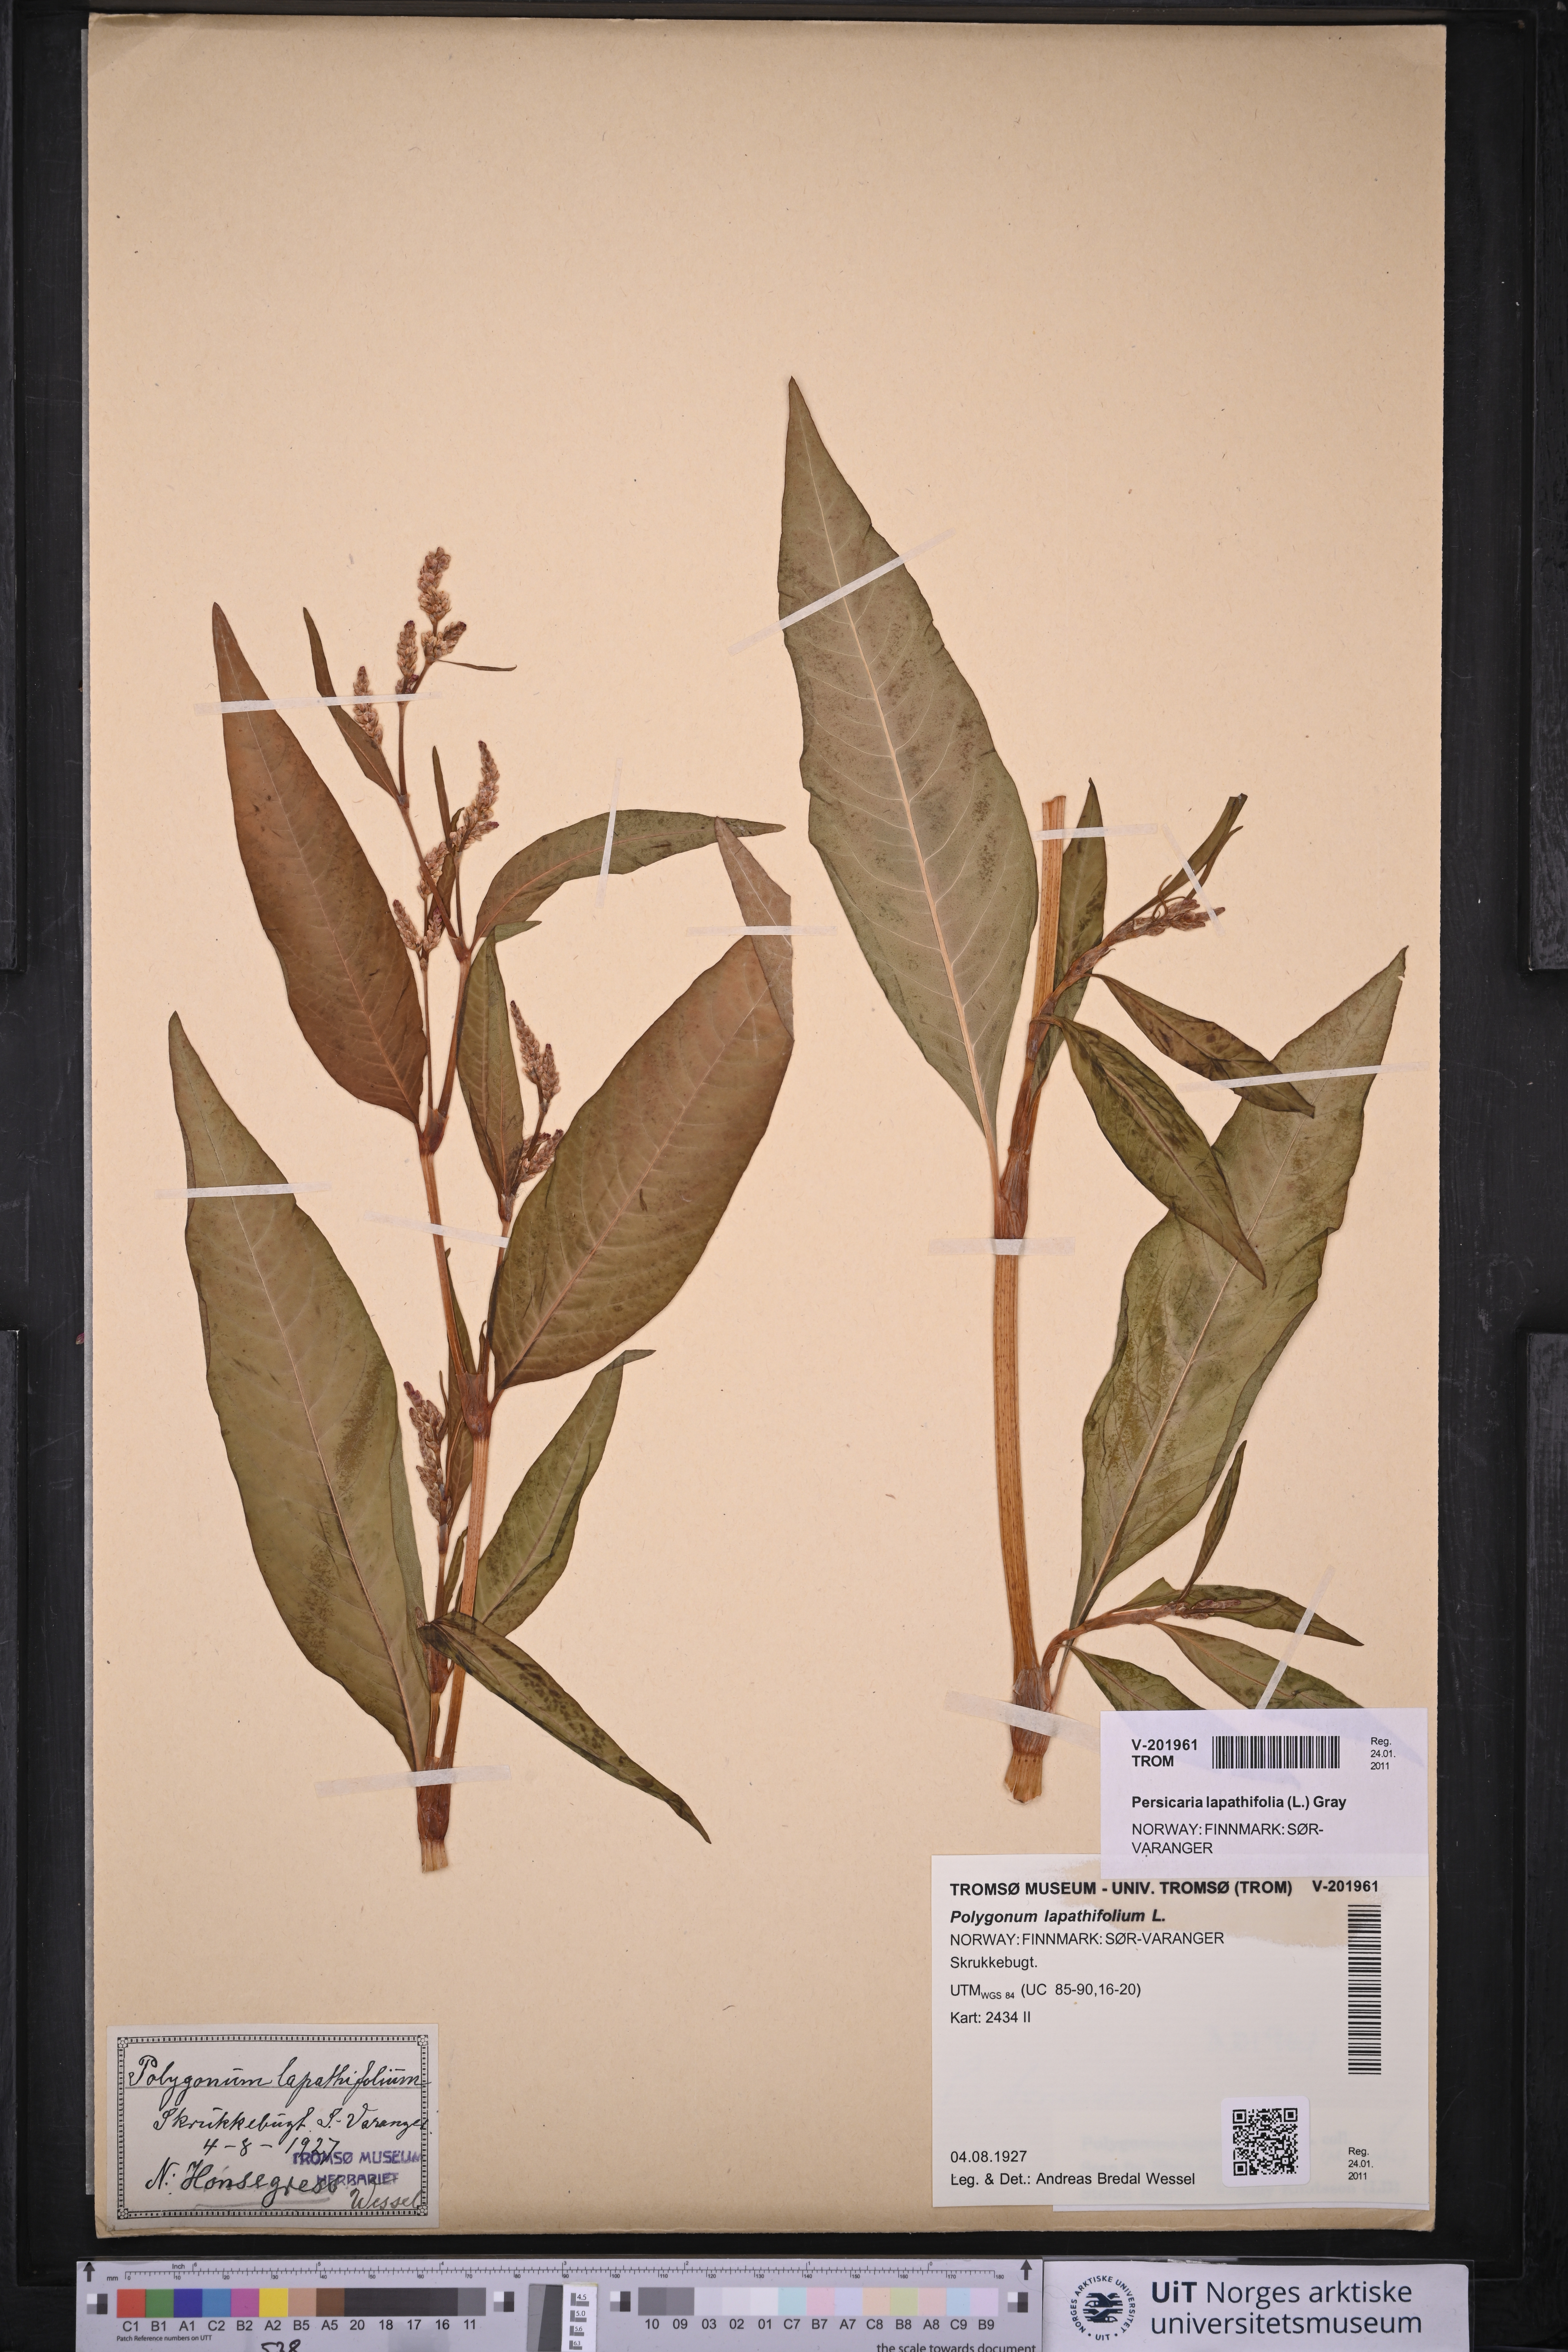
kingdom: Plantae
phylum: Tracheophyta
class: Magnoliopsida
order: Caryophyllales
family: Polygonaceae
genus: Persicaria
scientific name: Persicaria lapathifolia
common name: Curlytop knotweed
